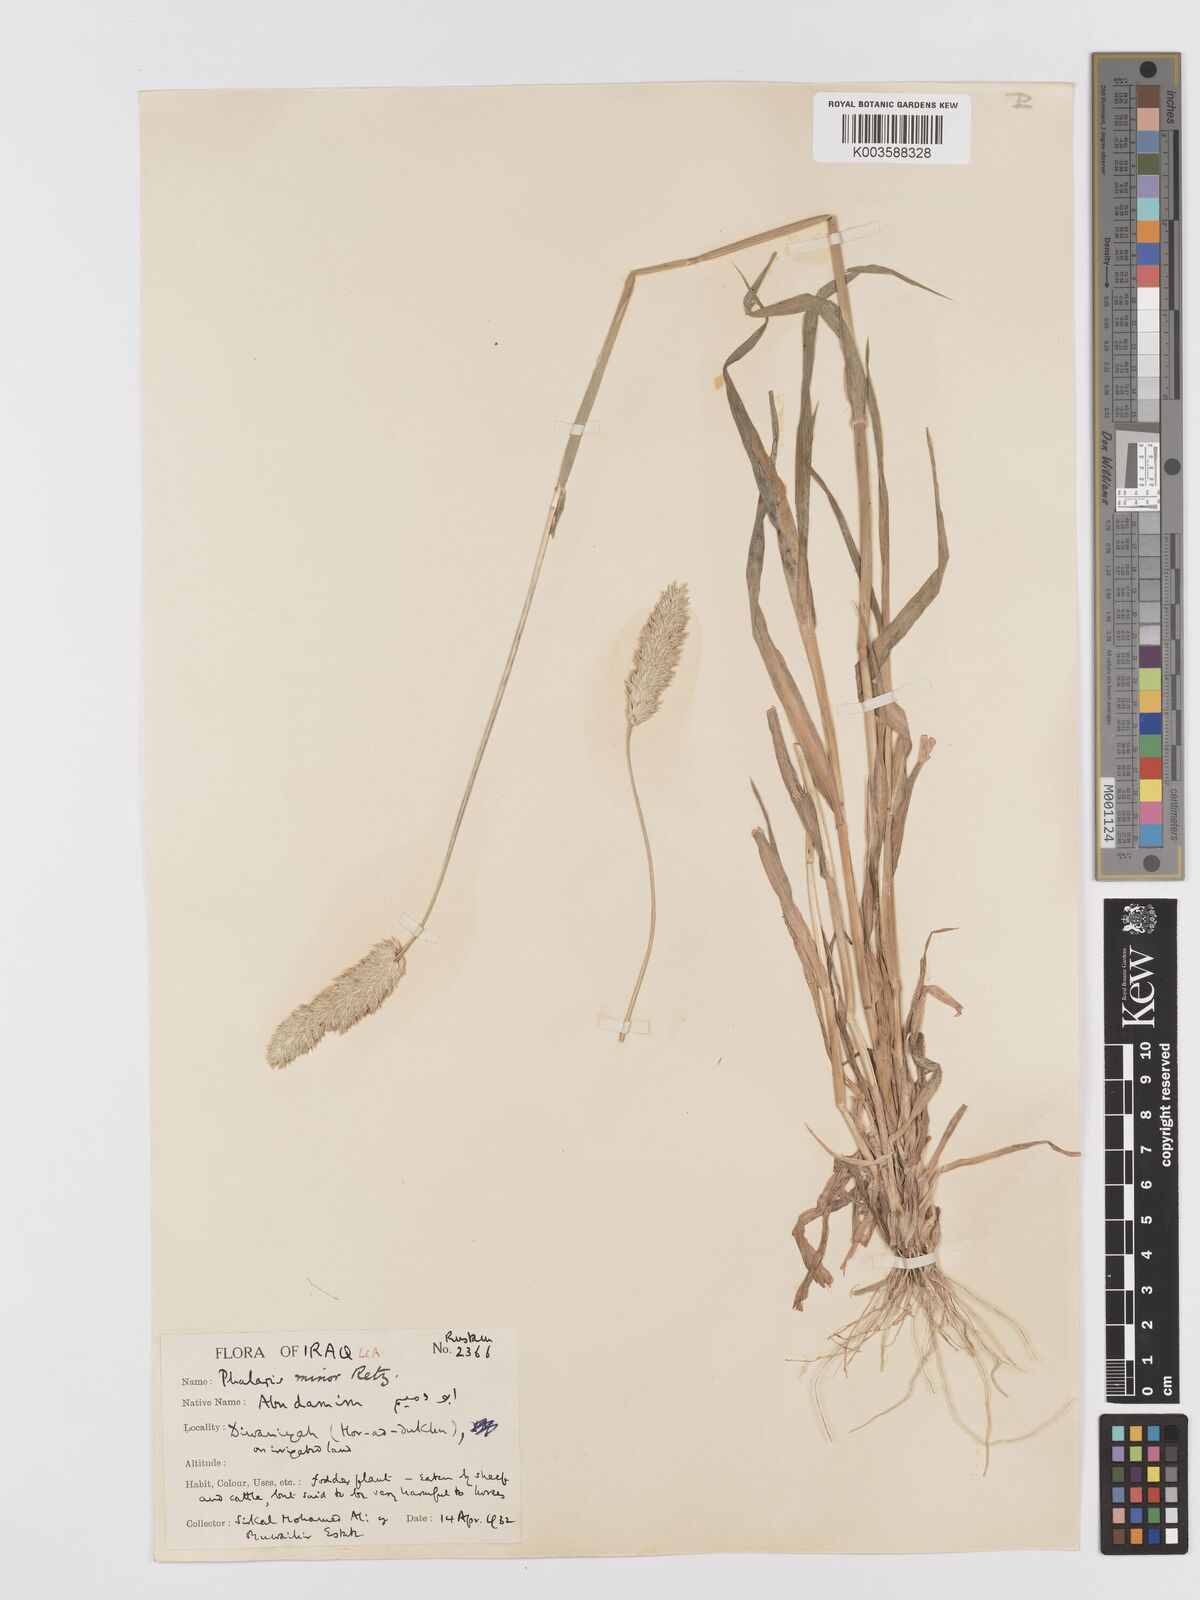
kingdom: Plantae
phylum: Tracheophyta
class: Liliopsida
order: Poales
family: Poaceae
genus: Phalaris
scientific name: Phalaris minor
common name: Littleseed canarygrass
